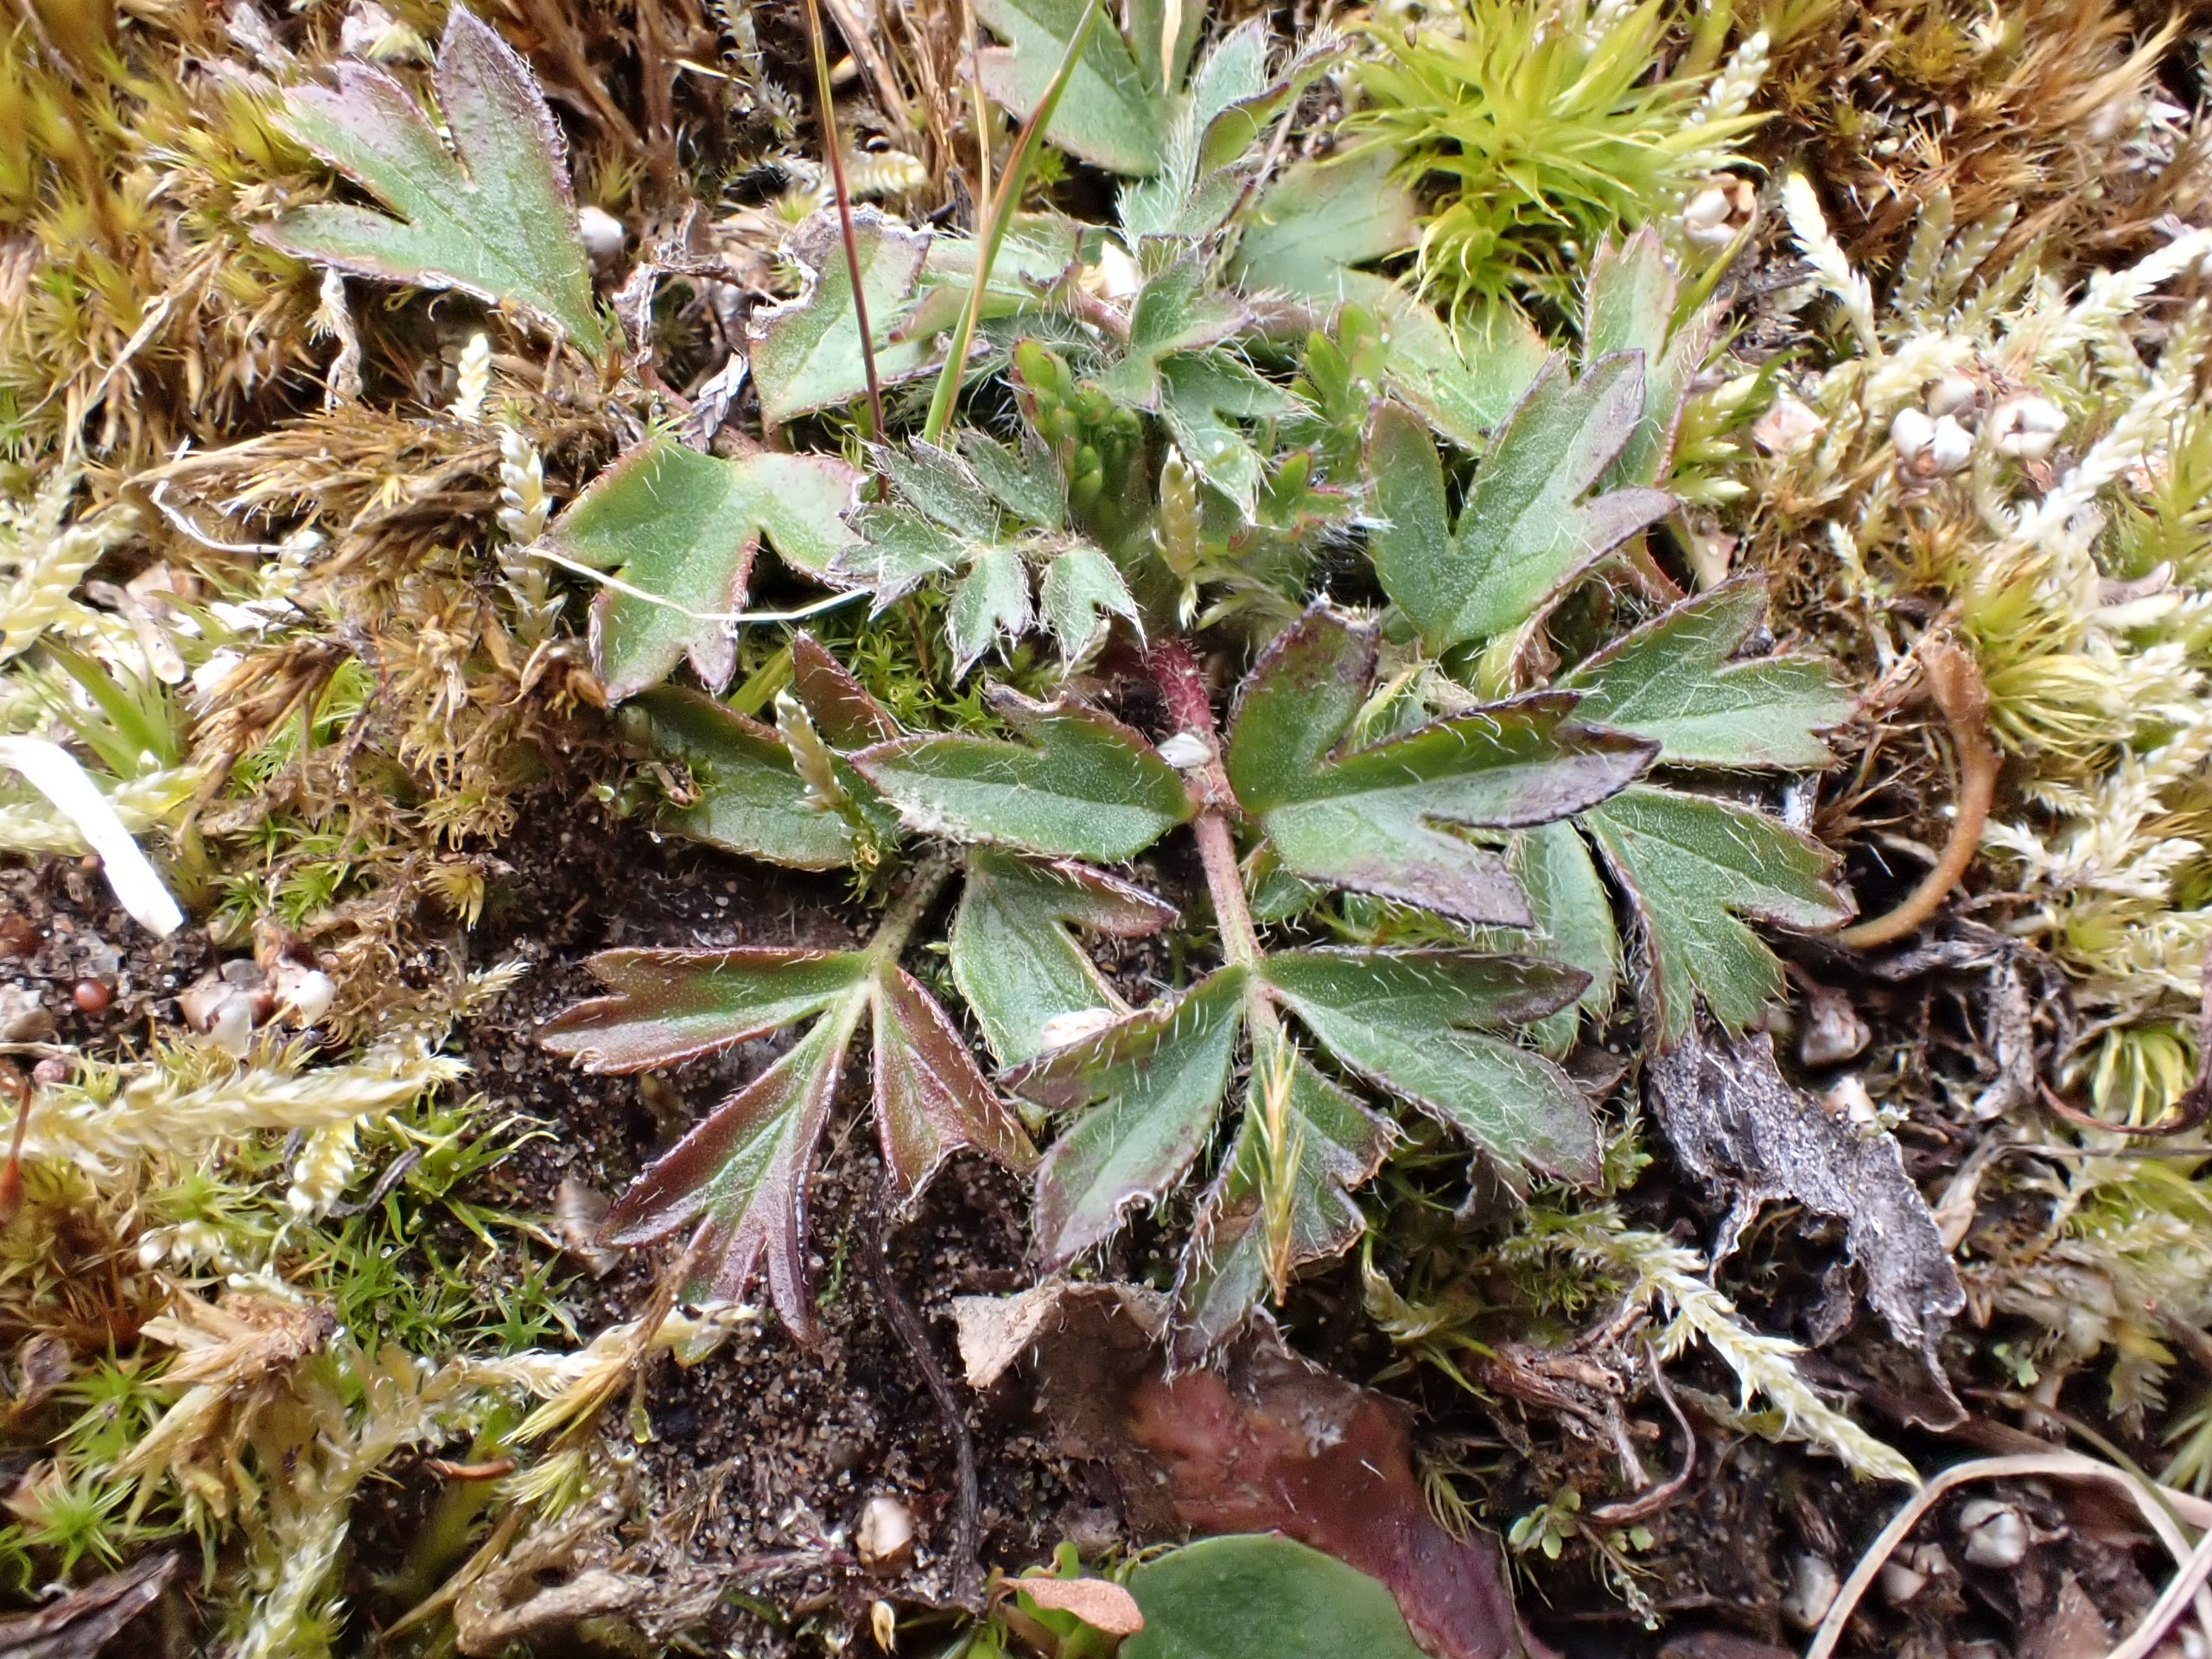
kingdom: Plantae
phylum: Tracheophyta
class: Magnoliopsida
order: Ranunculales
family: Ranunculaceae
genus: Pulsatilla
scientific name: Pulsatilla vernalis
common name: Vår-kobjælde
